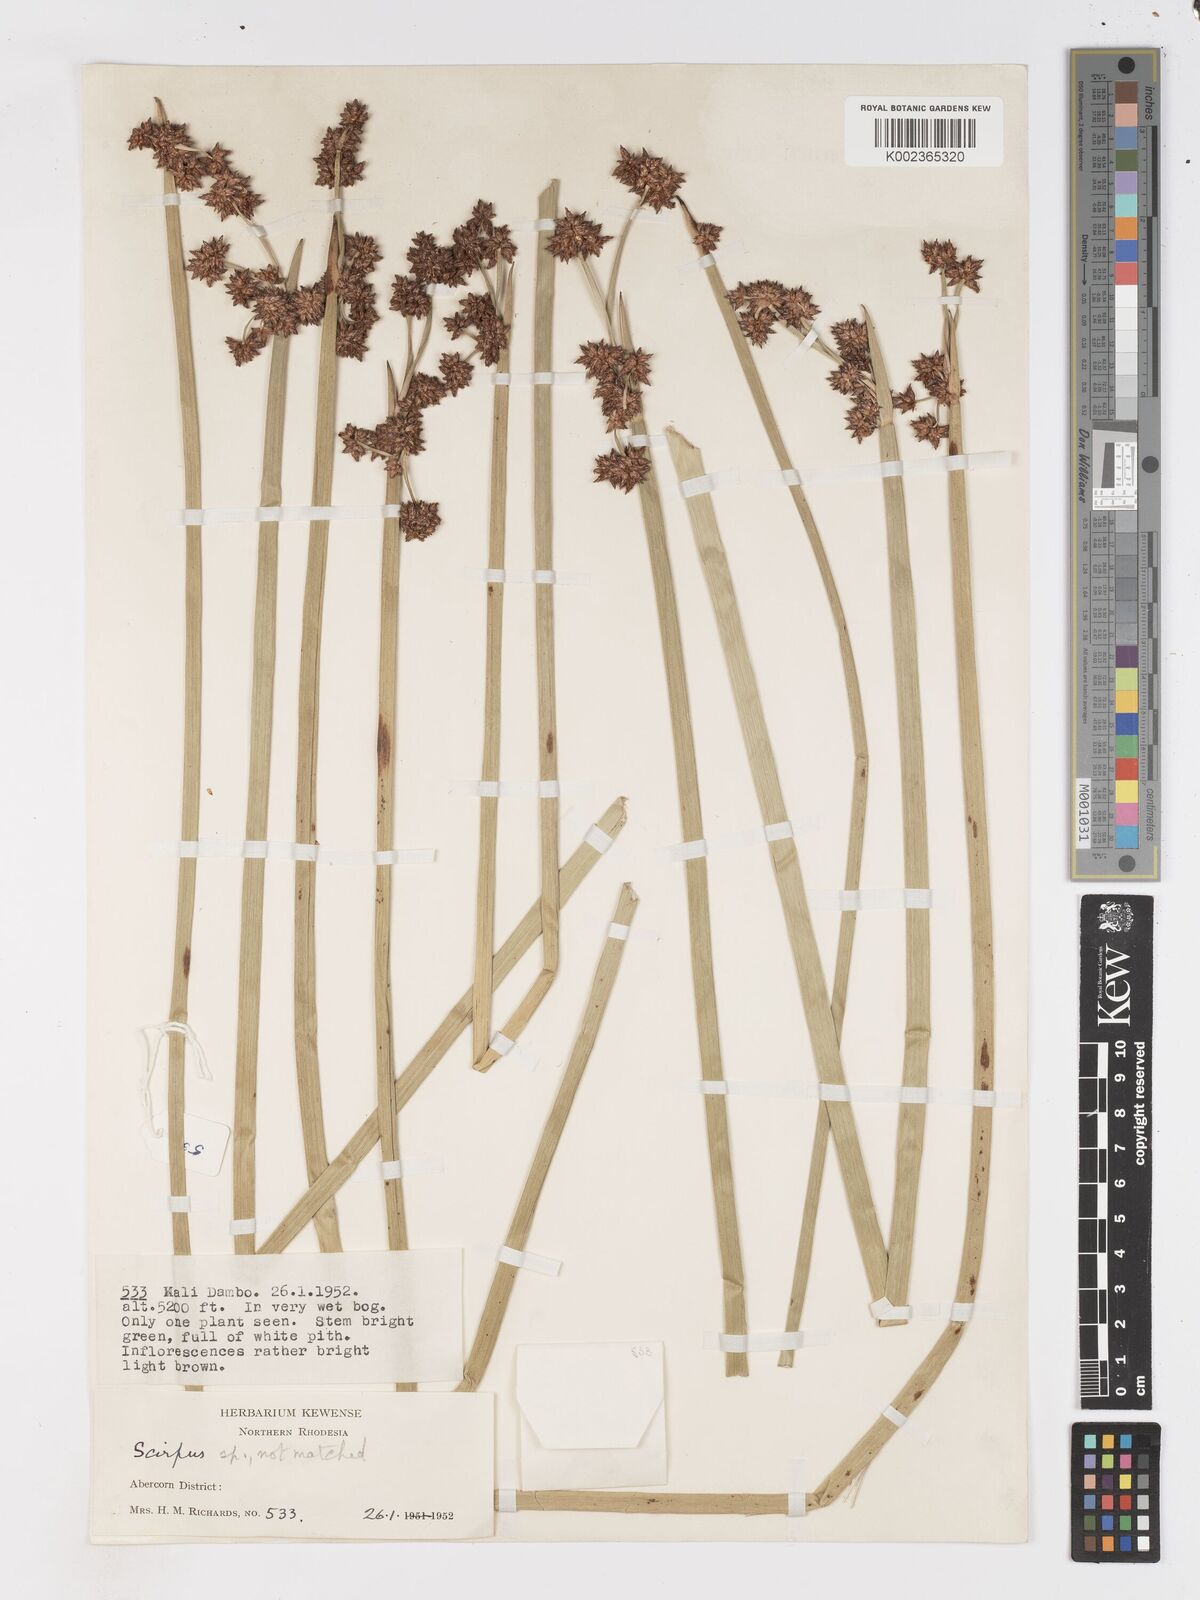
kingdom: Plantae
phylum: Tracheophyta
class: Liliopsida
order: Poales
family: Cyperaceae
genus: Schoenoplectus
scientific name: Schoenoplectus
